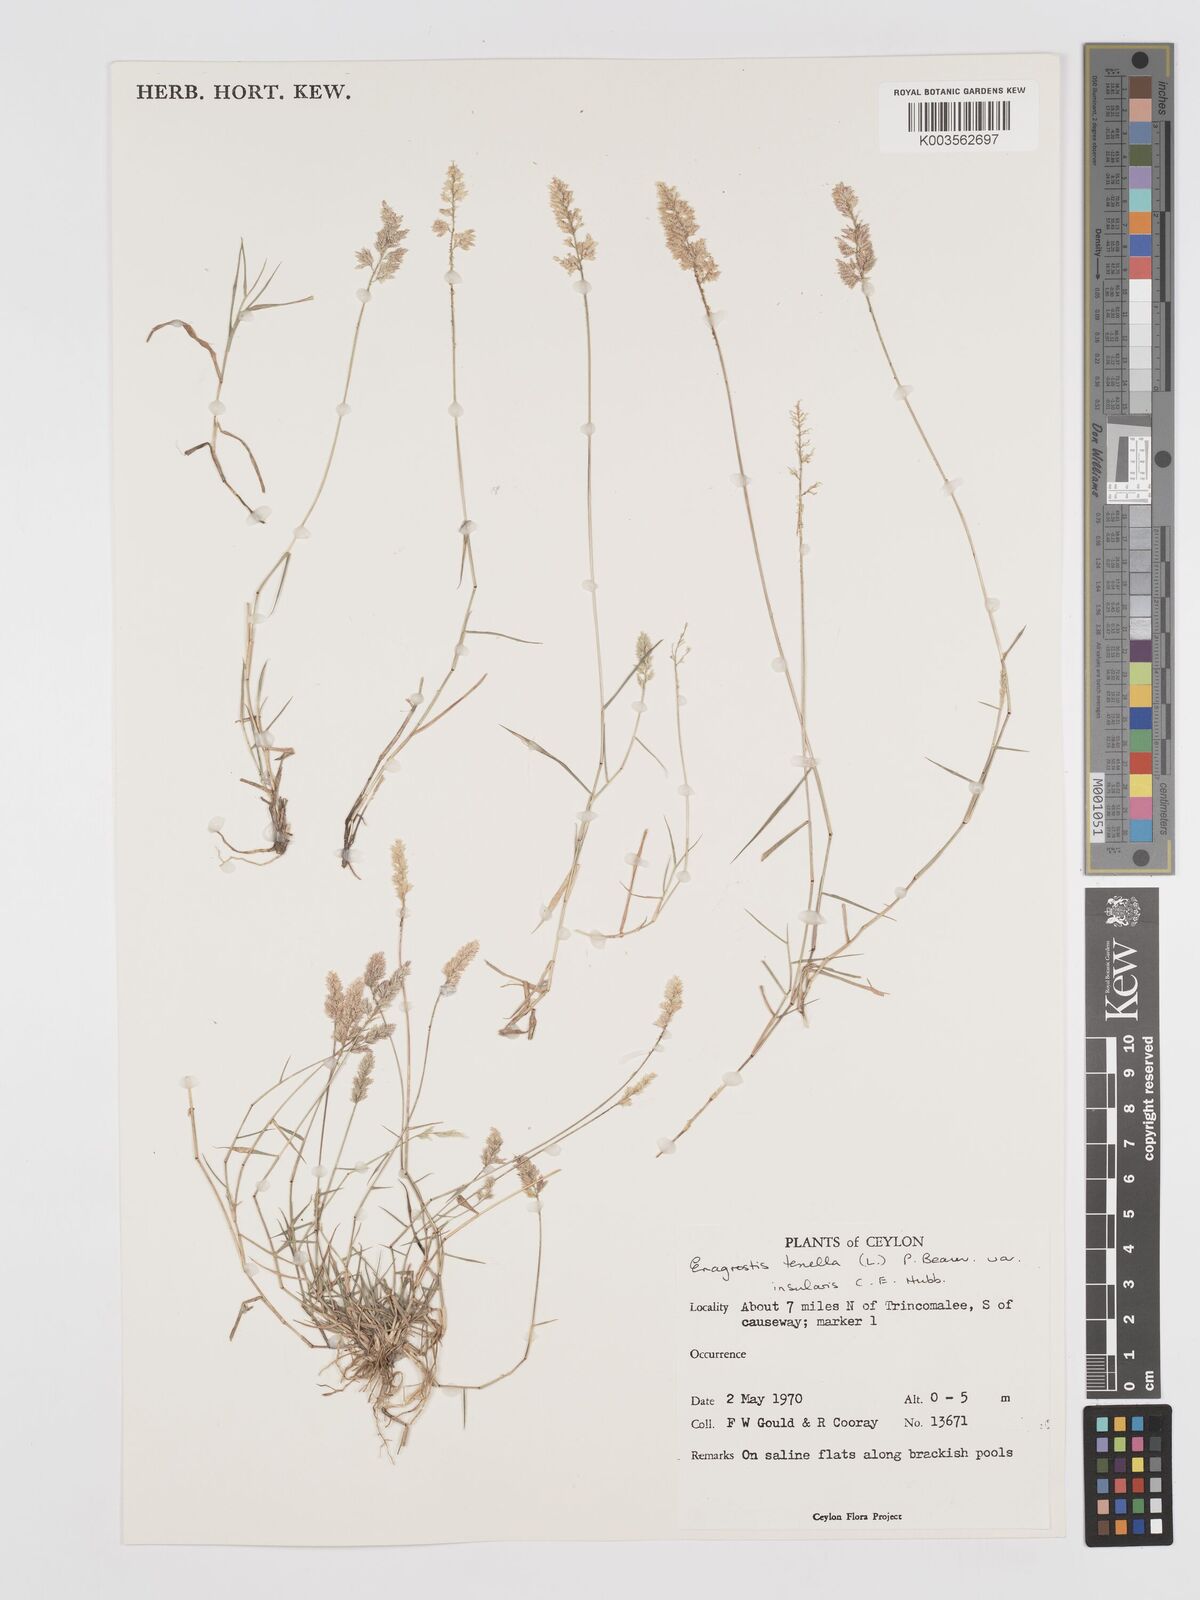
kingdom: Plantae
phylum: Tracheophyta
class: Liliopsida
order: Poales
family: Poaceae
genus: Eragrostis
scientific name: Eragrostis tenella
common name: Japanese lovegrass
